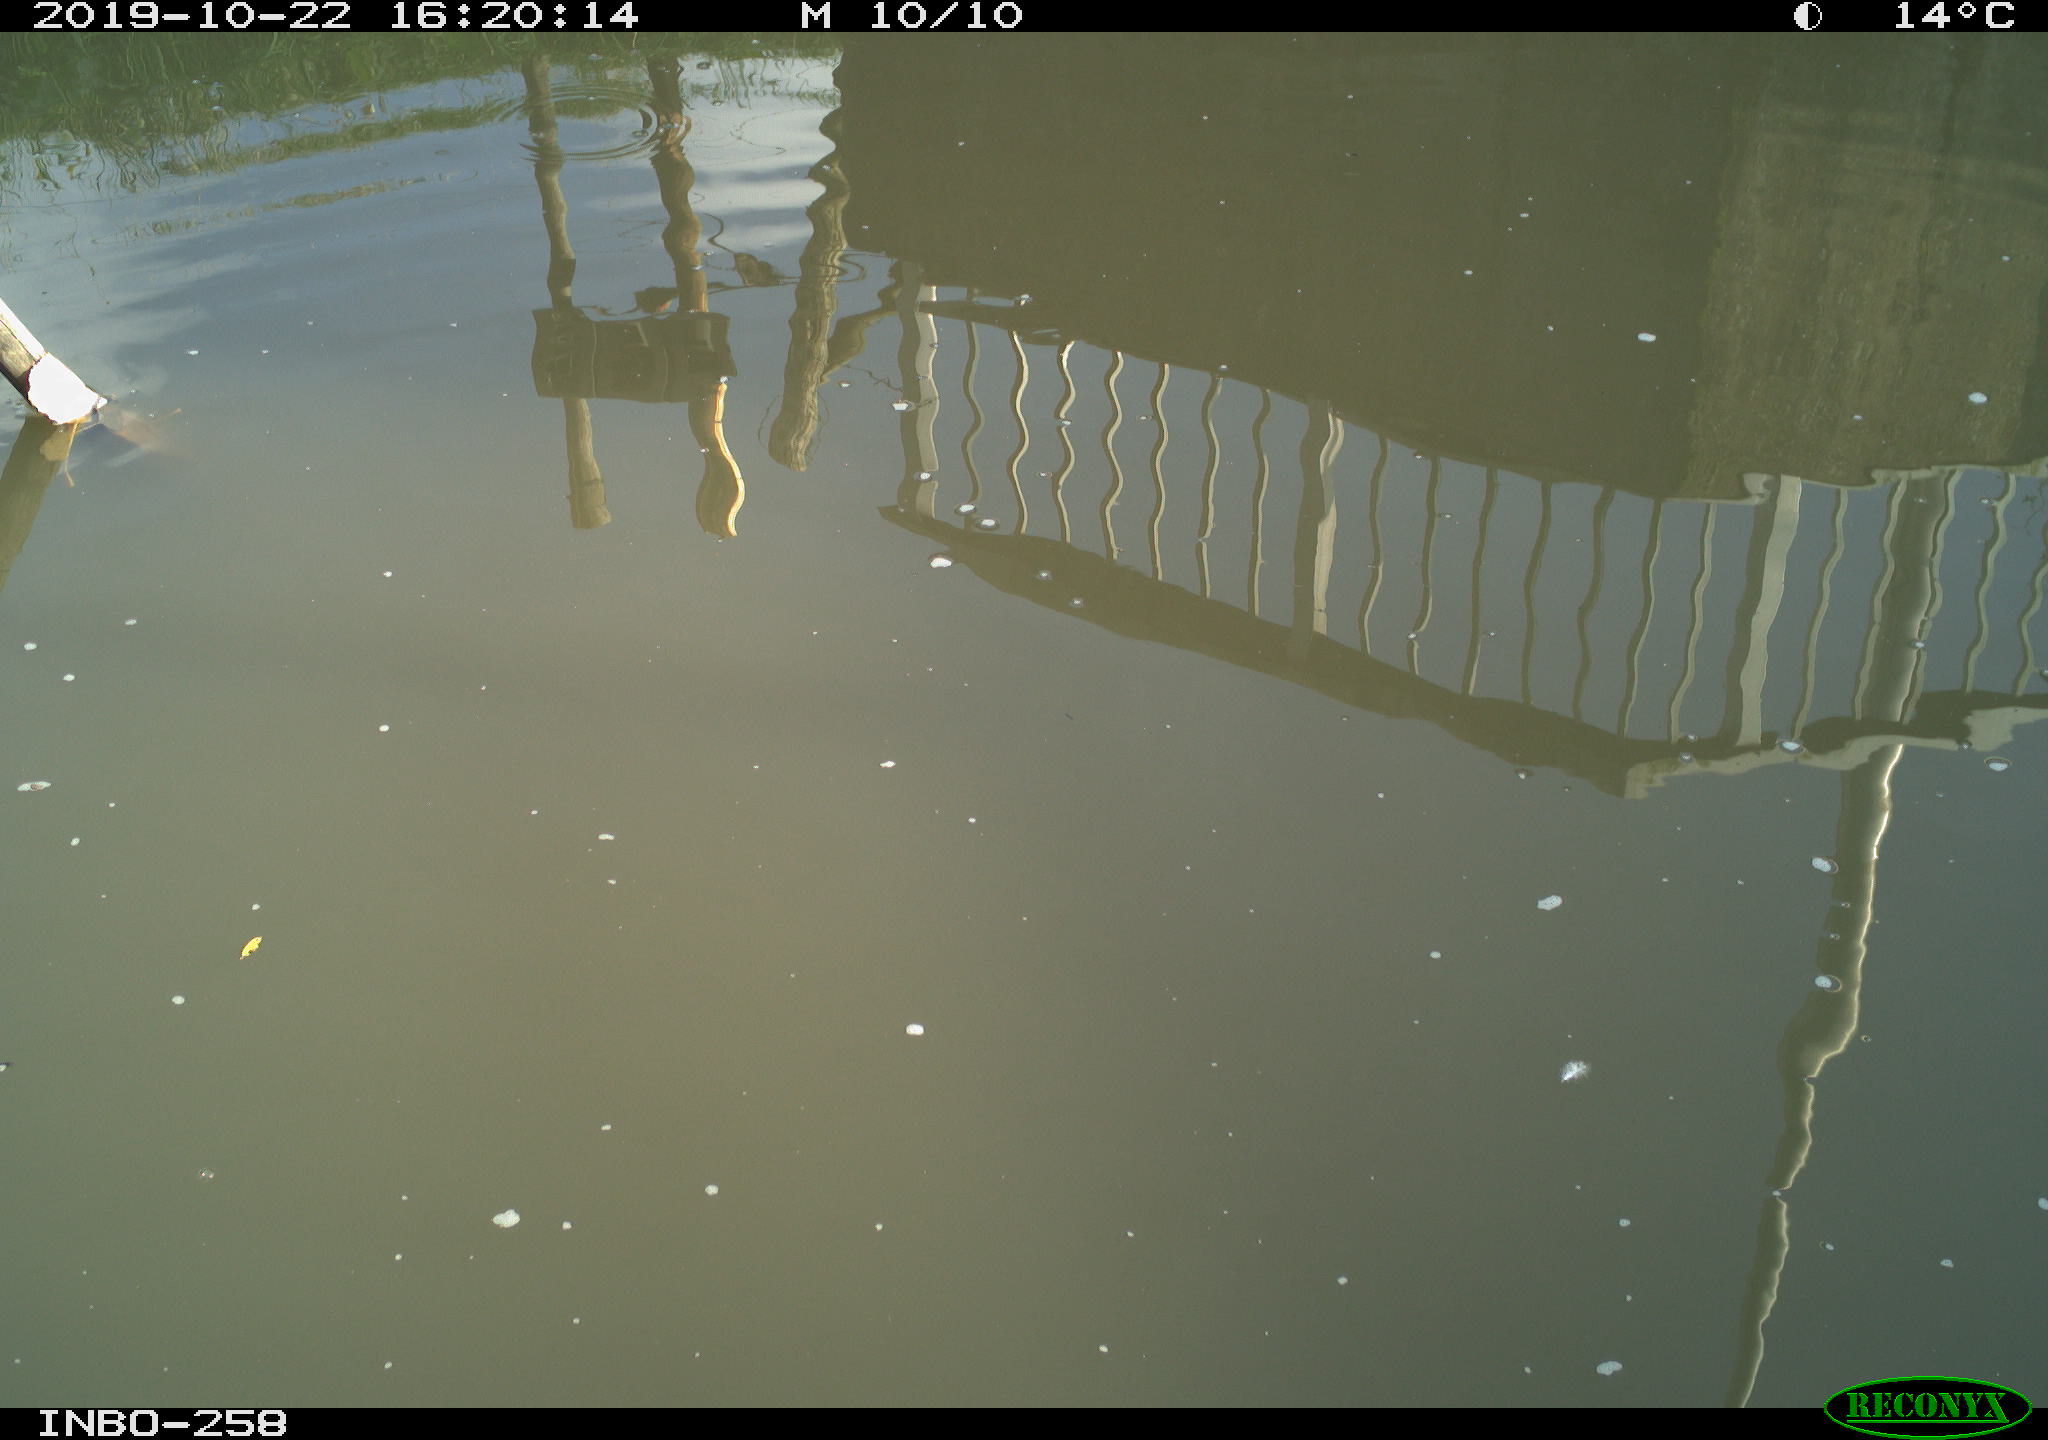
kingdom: Animalia
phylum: Chordata
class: Aves
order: Gruiformes
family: Rallidae
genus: Gallinula
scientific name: Gallinula chloropus
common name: Common moorhen
